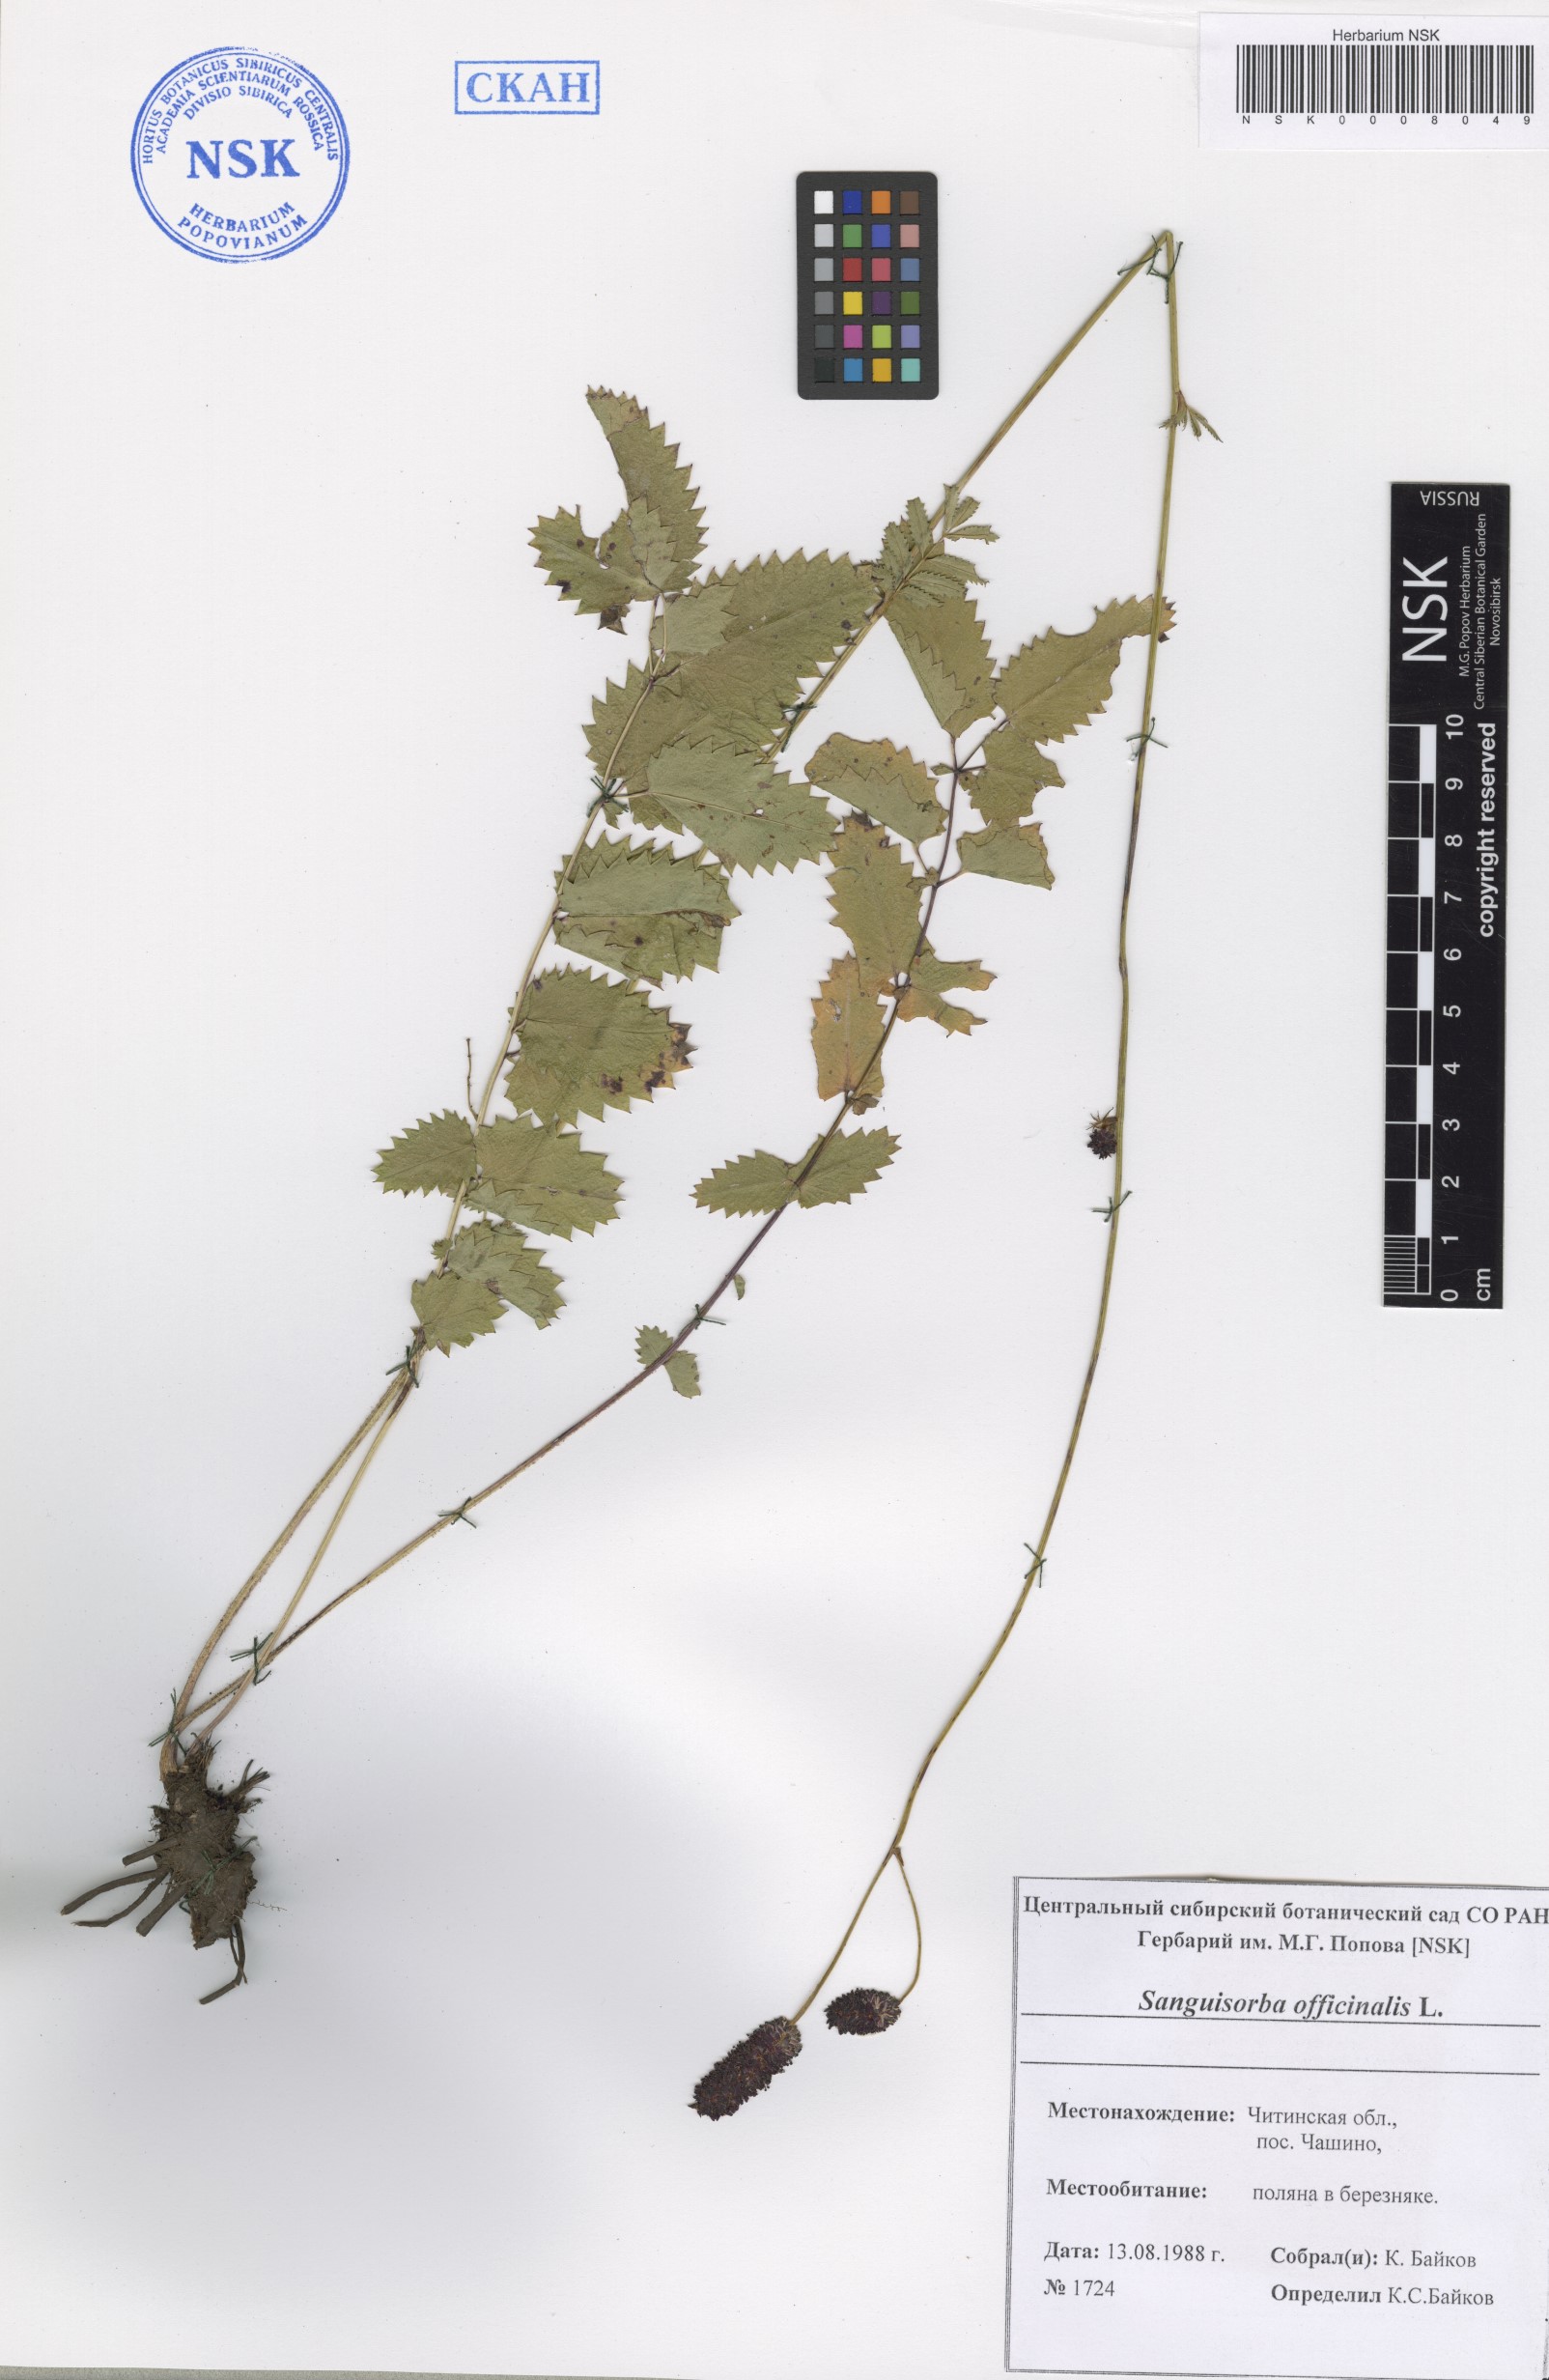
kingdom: Plantae
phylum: Tracheophyta
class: Magnoliopsida
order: Rosales
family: Rosaceae
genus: Sanguisorba
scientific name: Sanguisorba officinalis
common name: Great burnet
